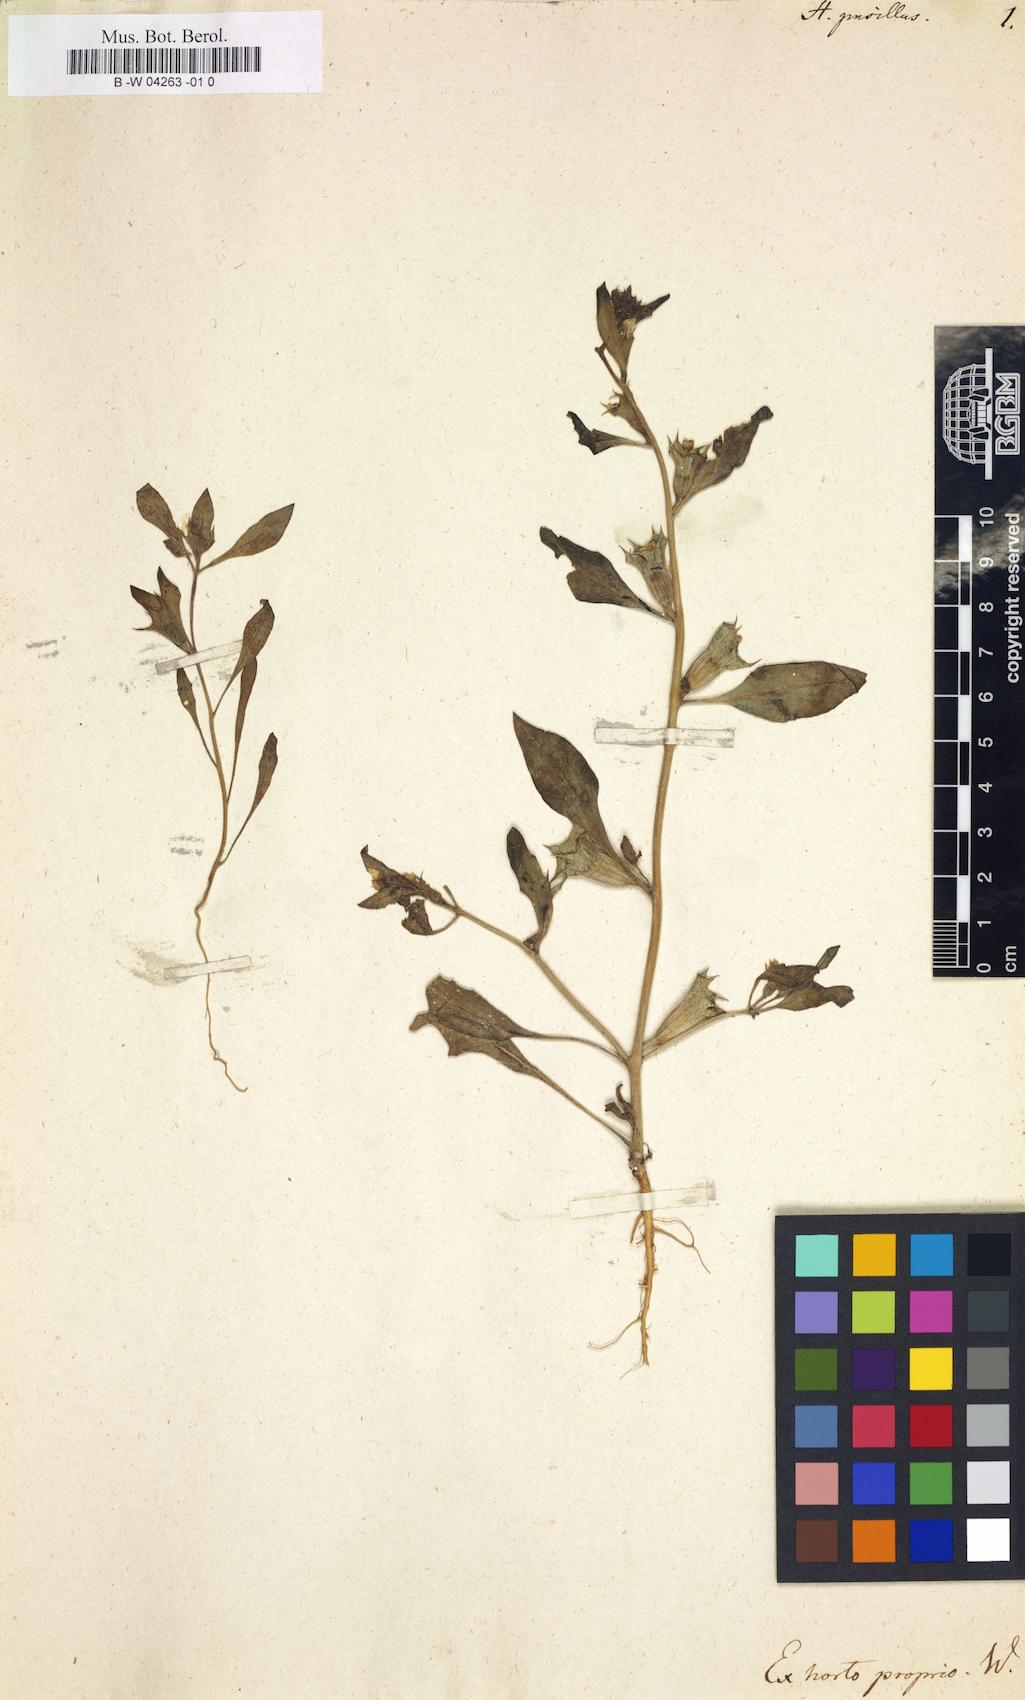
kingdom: Plantae
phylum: Tracheophyta
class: Magnoliopsida
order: Solanales
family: Solanaceae
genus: Hyoscyamus
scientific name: Hyoscyamus pusillus
